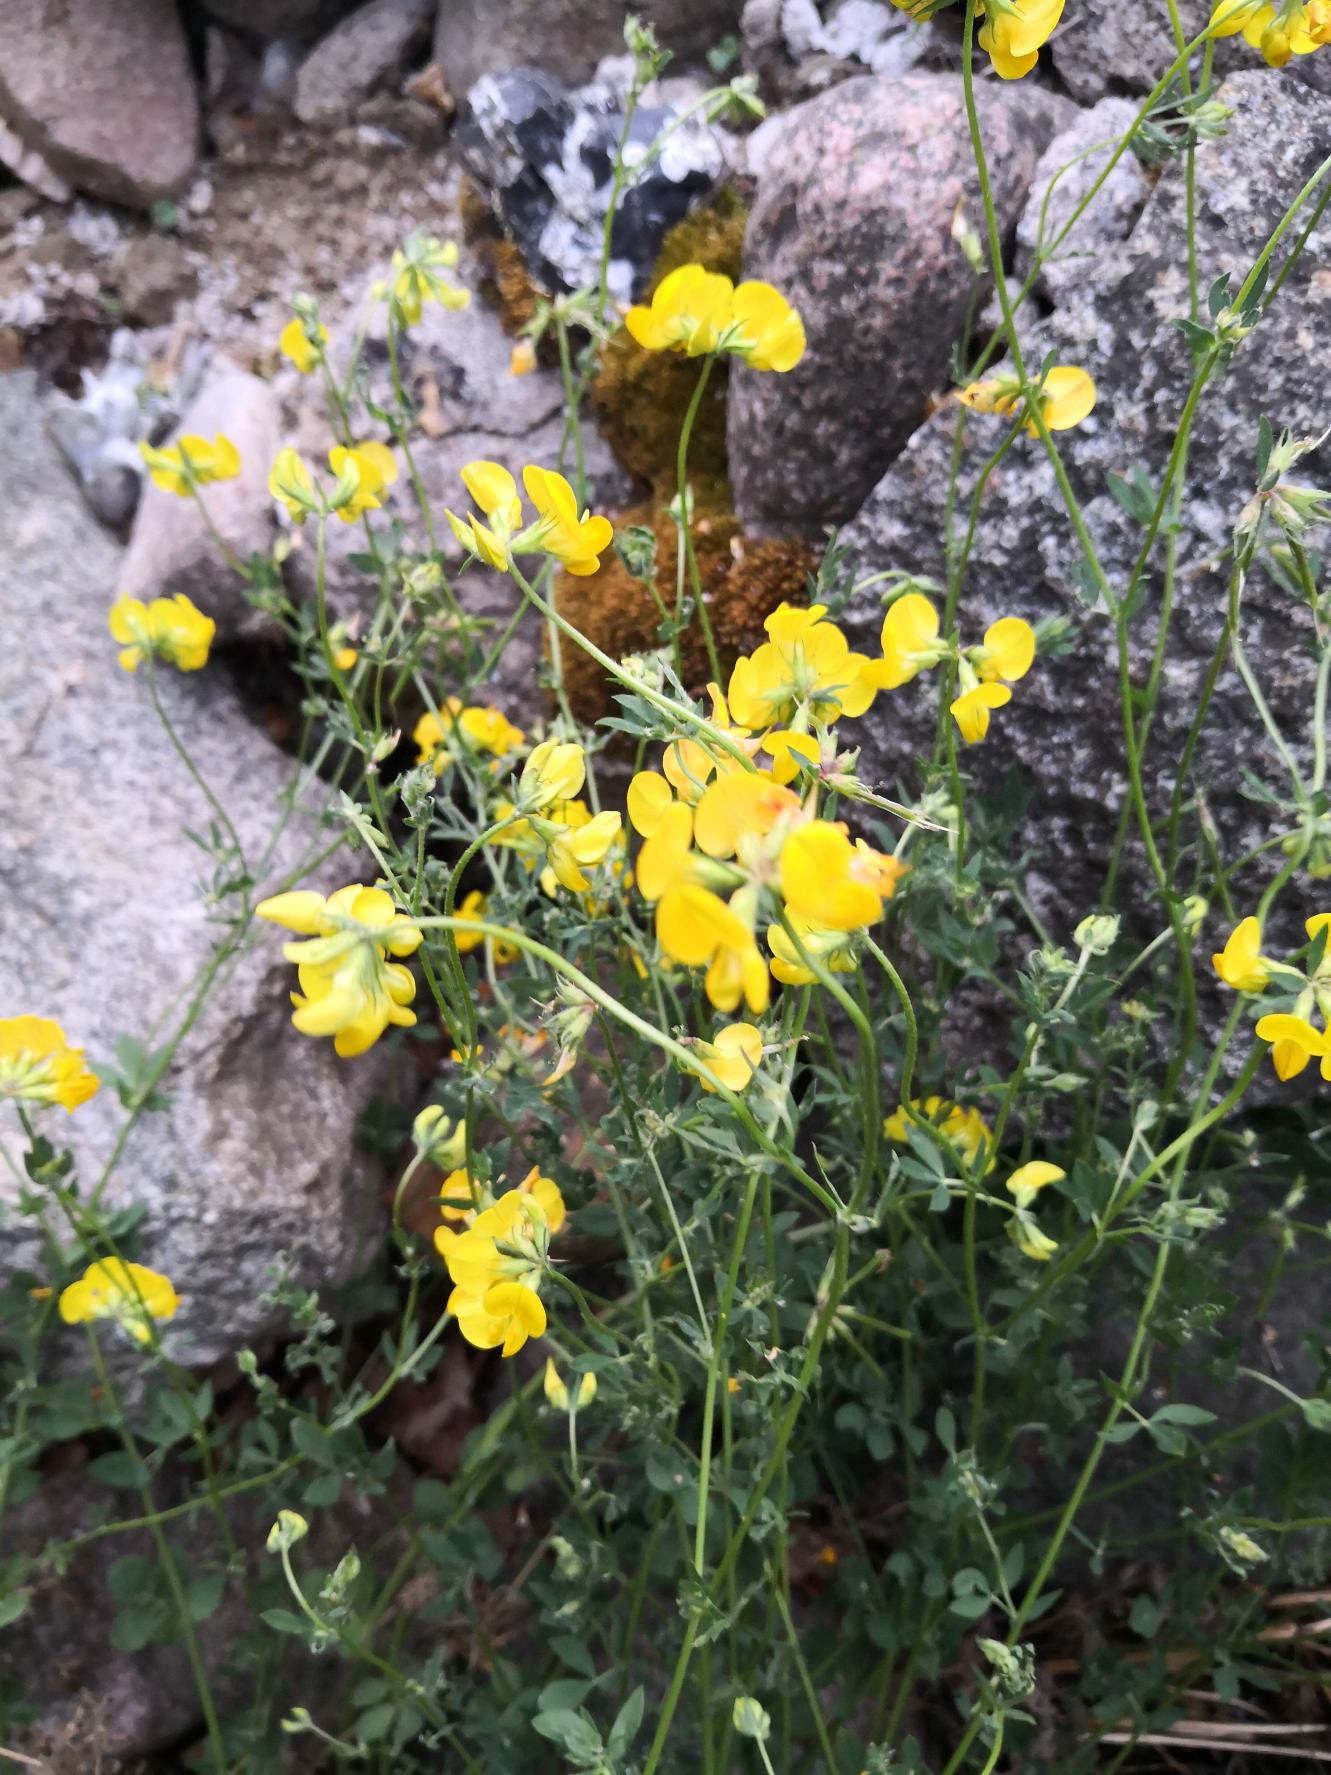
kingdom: Plantae
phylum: Tracheophyta
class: Magnoliopsida
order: Fabales
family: Fabaceae
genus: Lotus
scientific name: Lotus corniculatus
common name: Almindelig kællingetand
